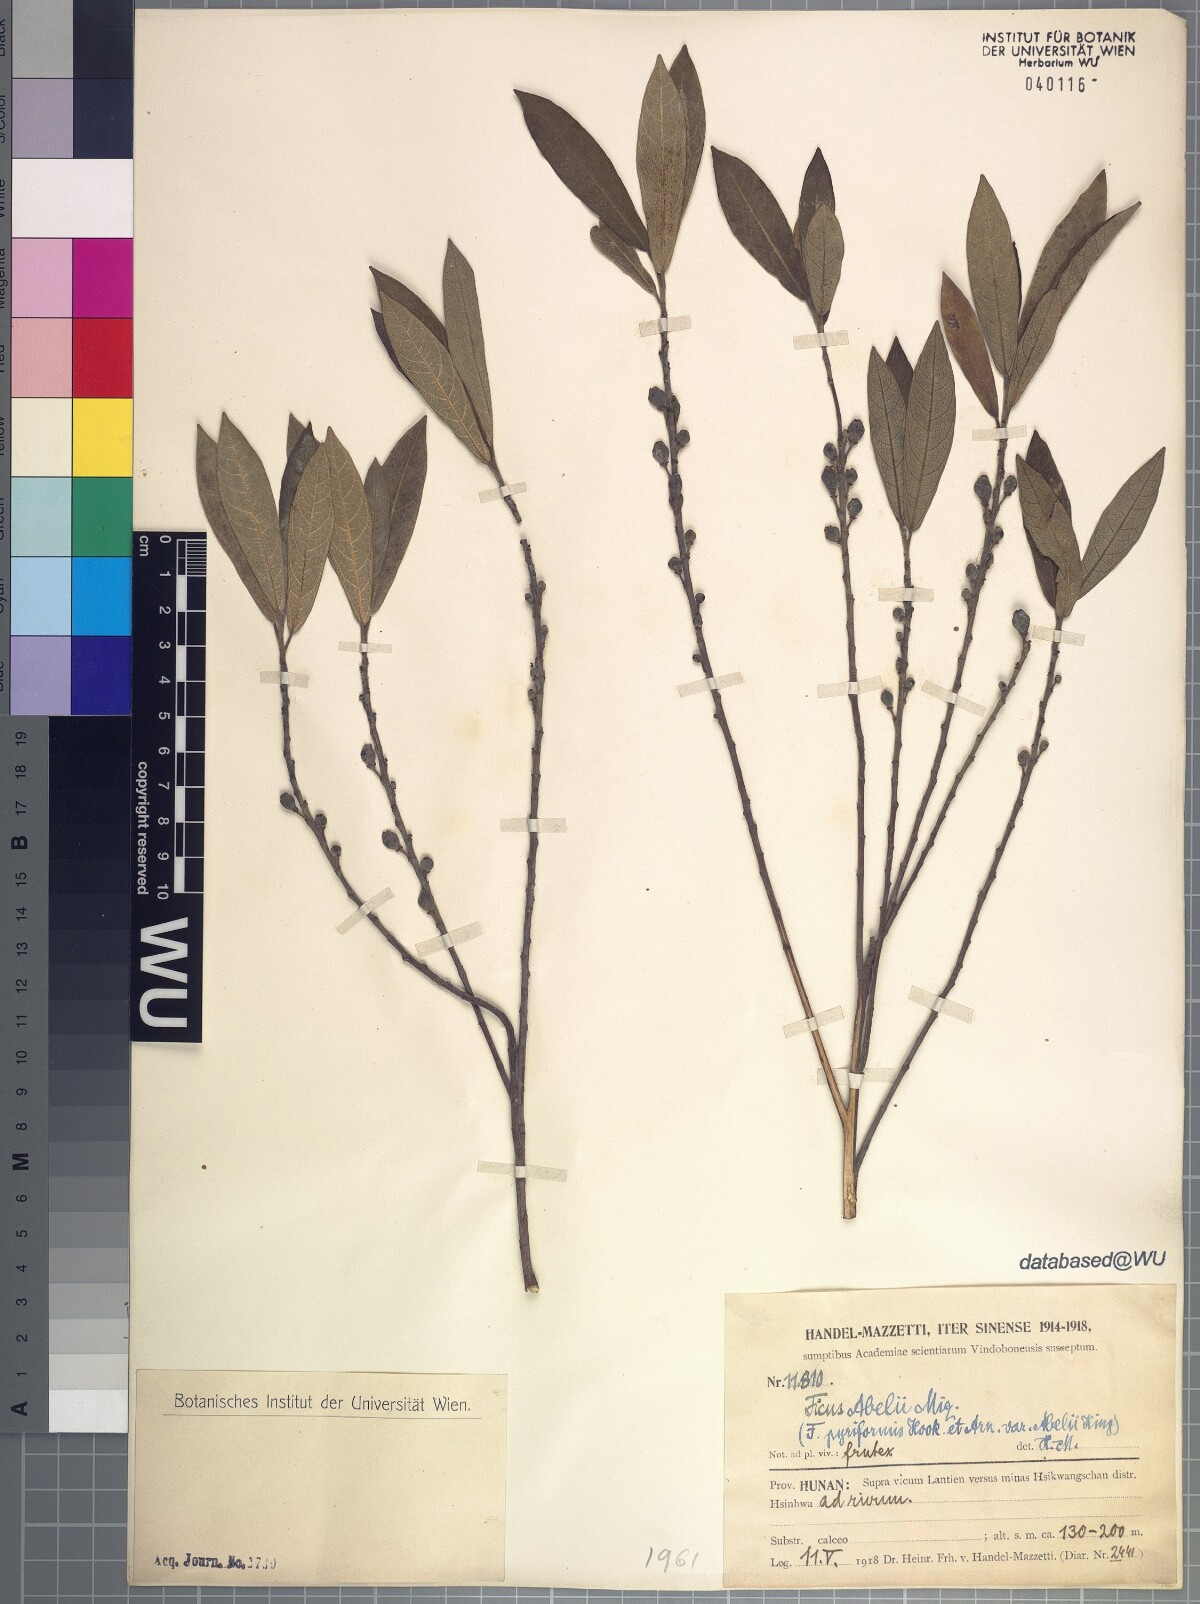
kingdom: Plantae
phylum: Tracheophyta
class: Magnoliopsida
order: Rosales
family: Moraceae
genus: Ficus
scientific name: Ficus abelii
